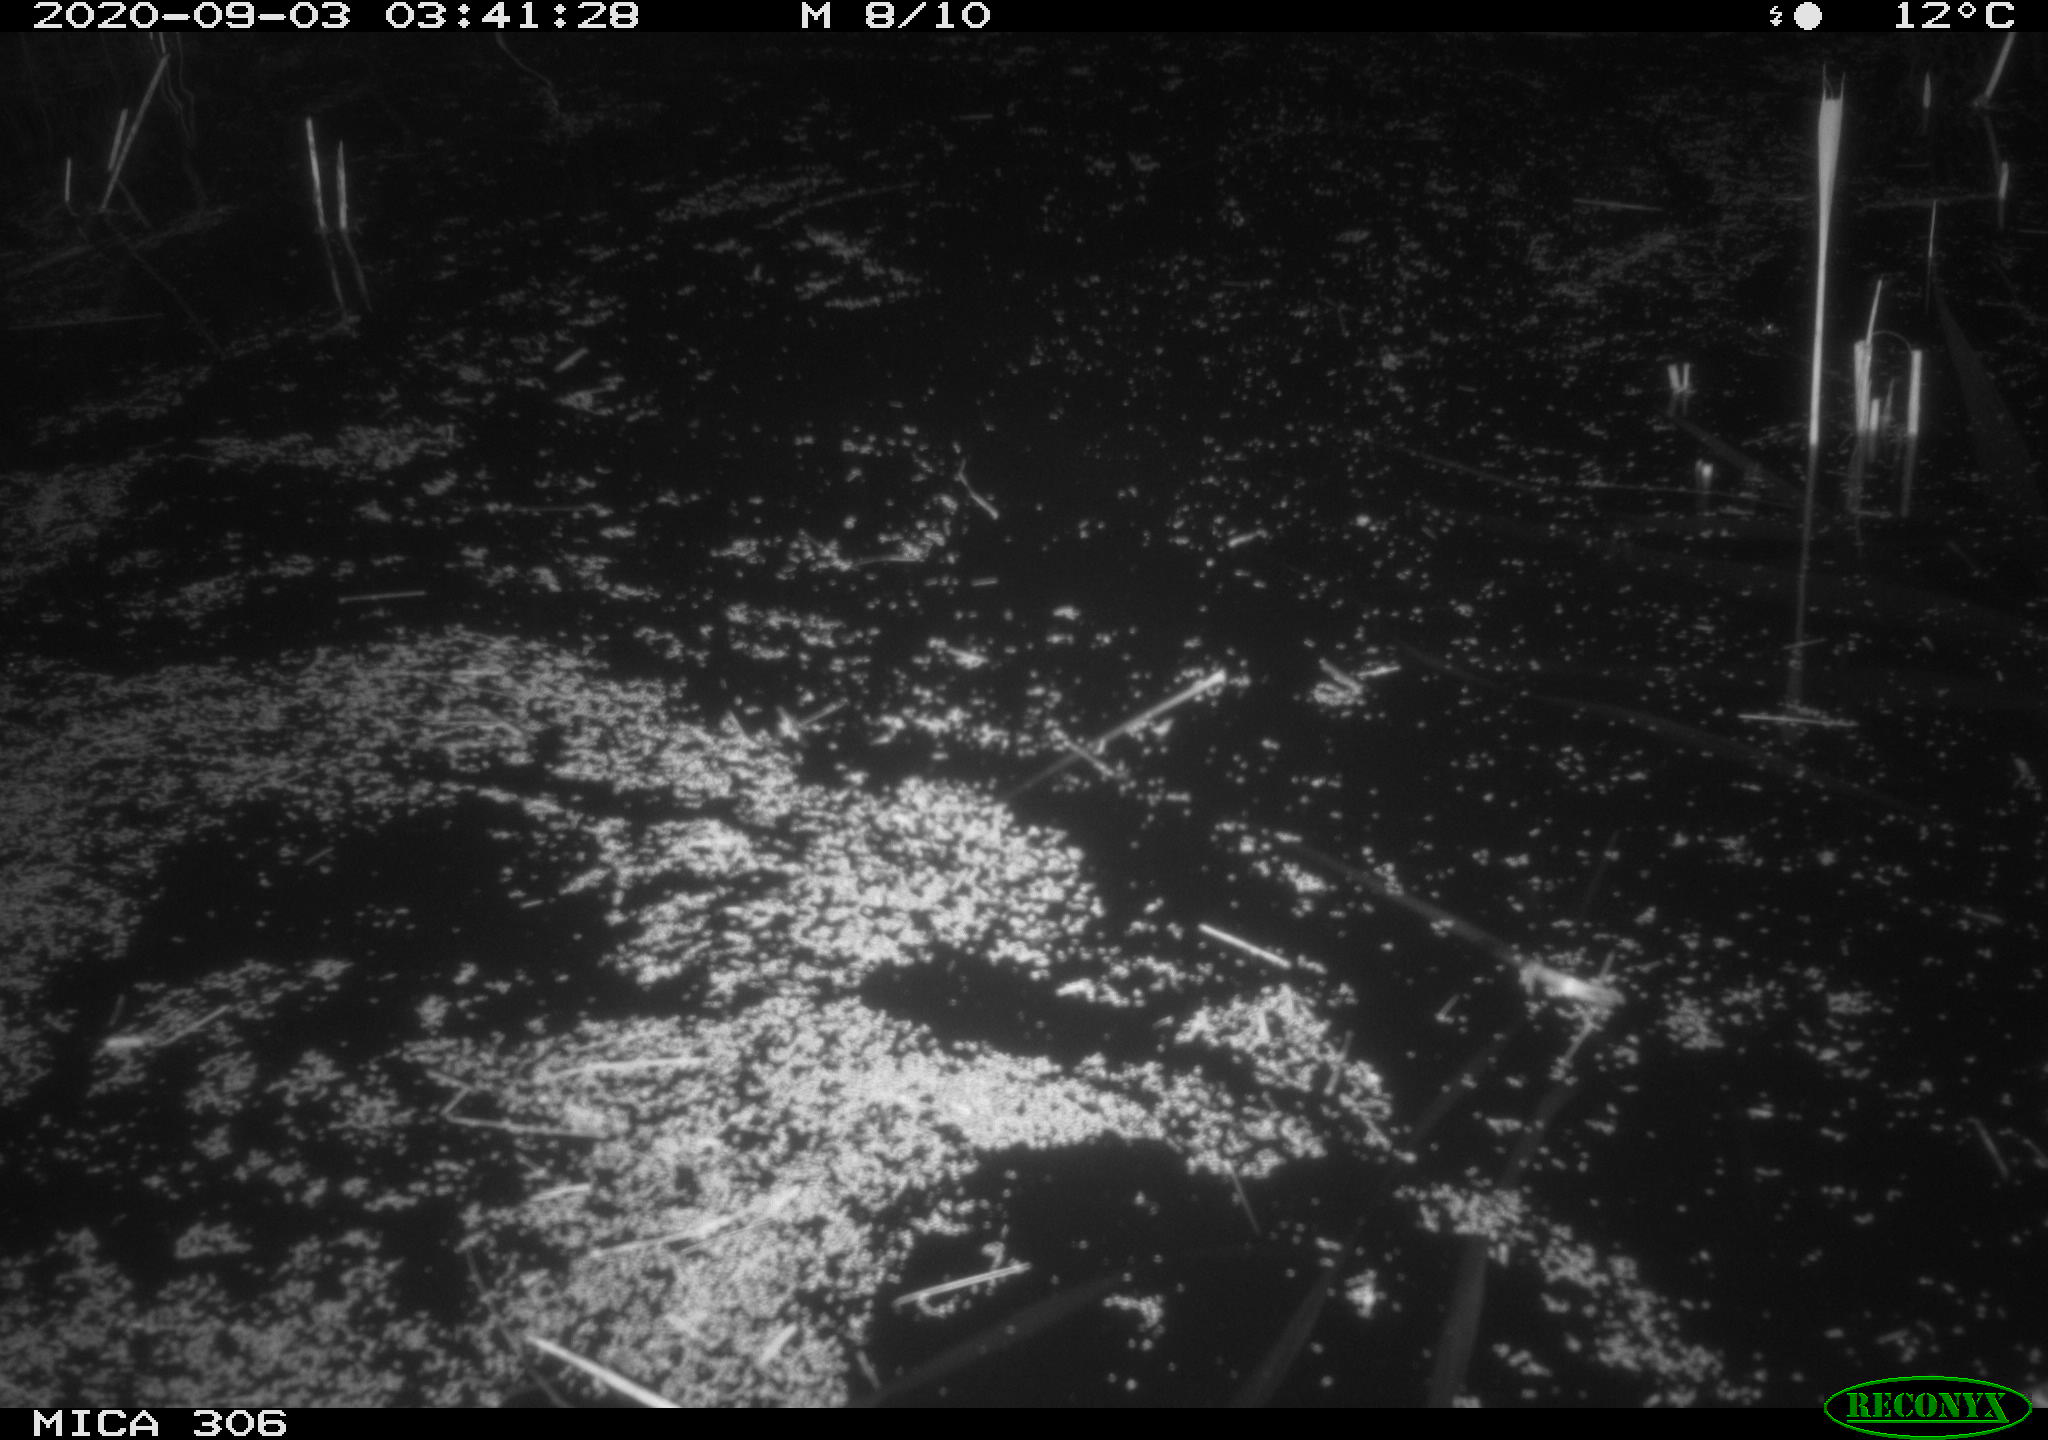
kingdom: Animalia
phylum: Chordata
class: Mammalia
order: Rodentia
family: Muridae
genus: Rattus
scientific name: Rattus norvegicus
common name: Brown rat
